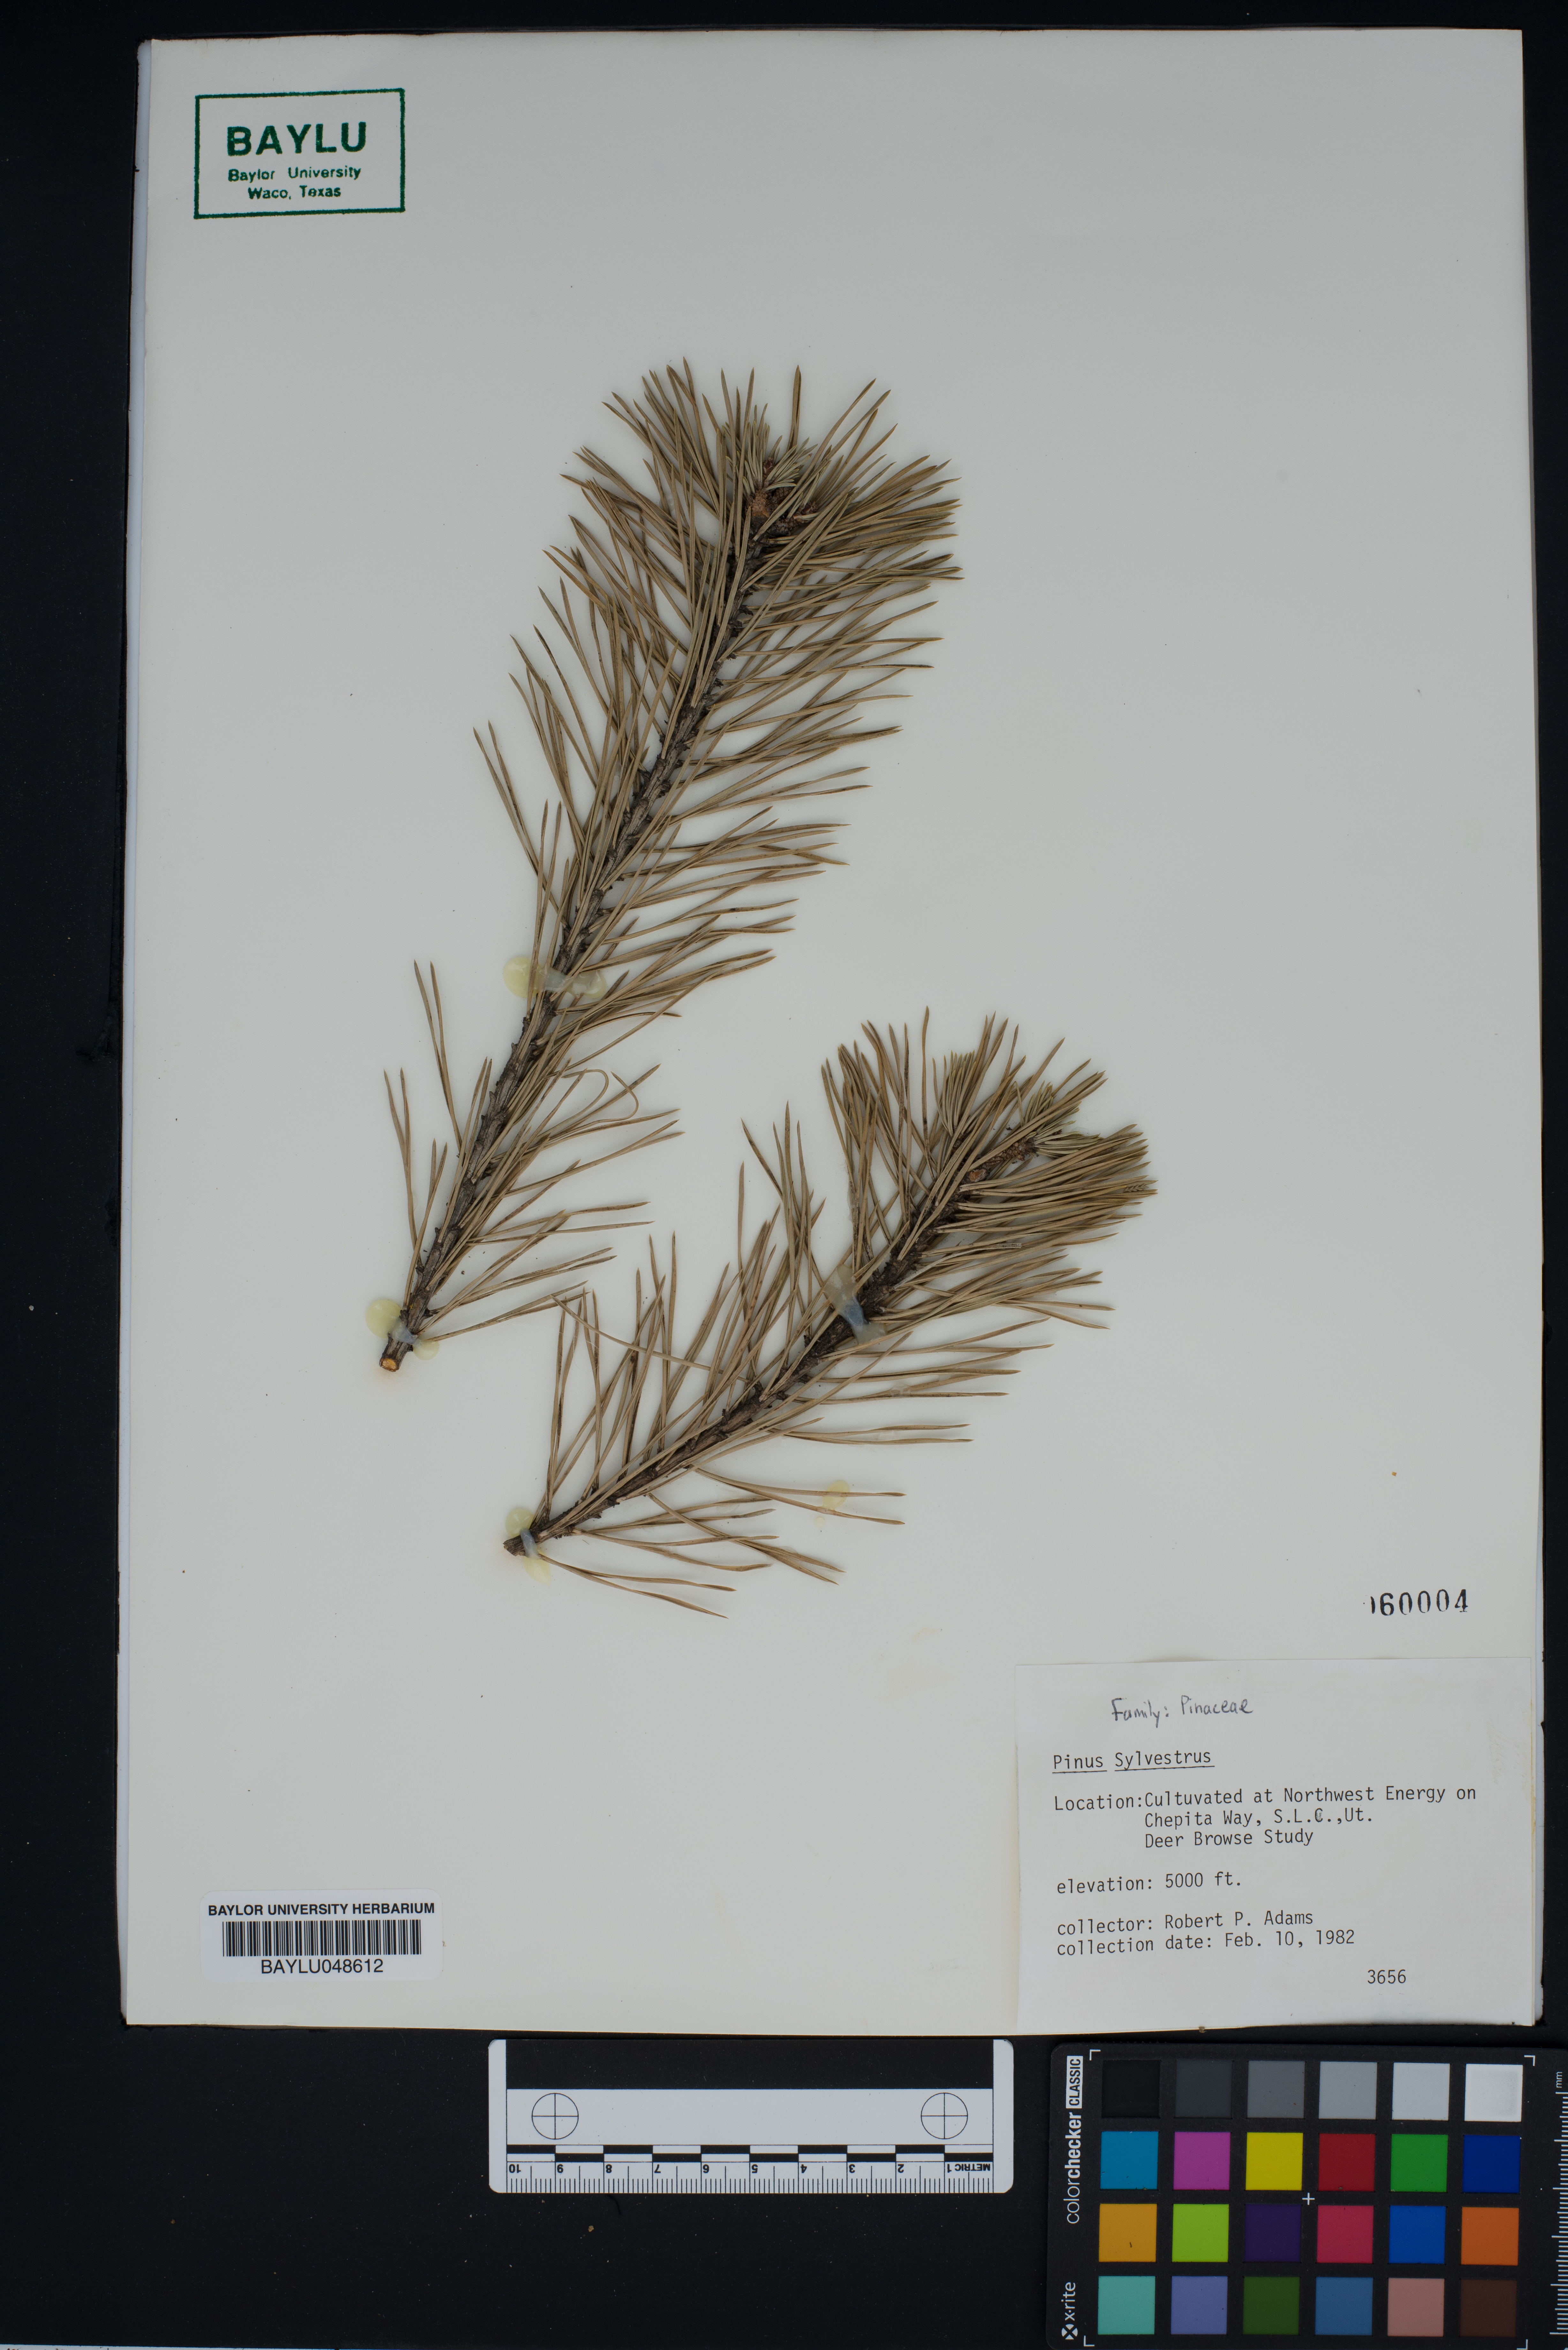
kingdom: Plantae
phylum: Tracheophyta
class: Pinopsida
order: Pinales
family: Pinaceae
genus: Pinus
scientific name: Pinus sylvestris
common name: Scots pine
